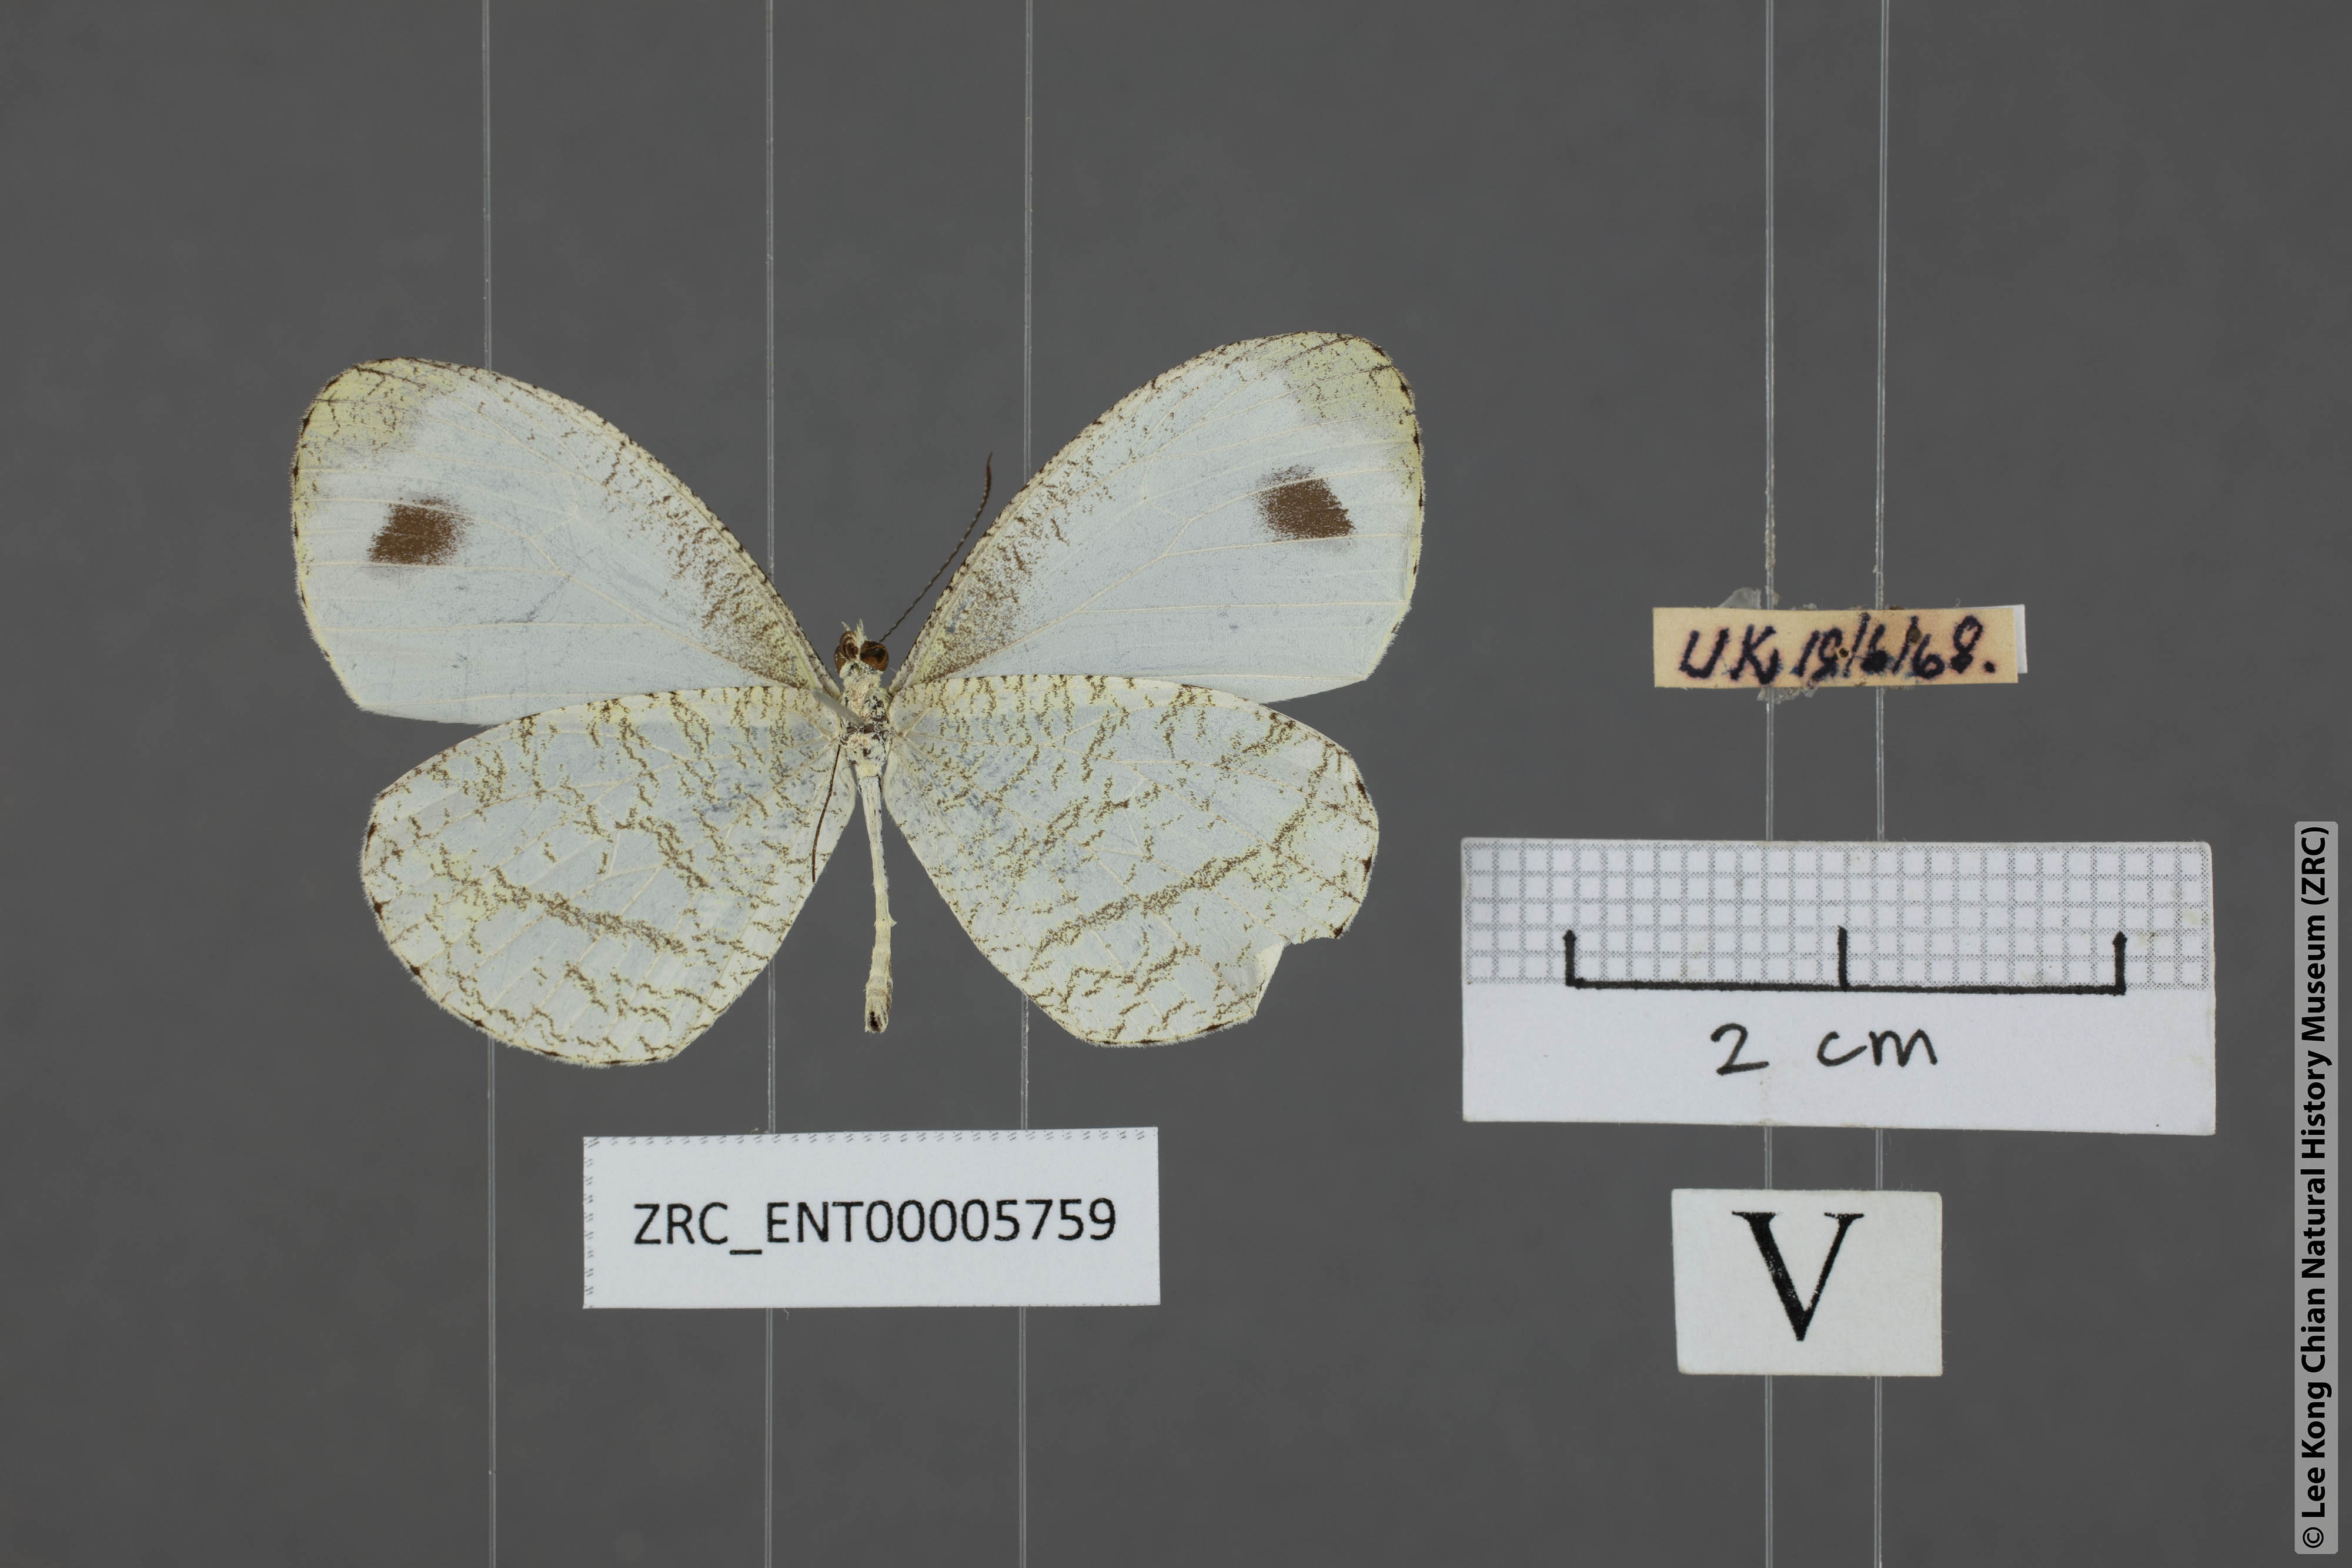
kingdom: Animalia
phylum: Arthropoda
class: Insecta
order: Lepidoptera
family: Pieridae
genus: Leptosia
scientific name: Leptosia nina
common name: Psyche
